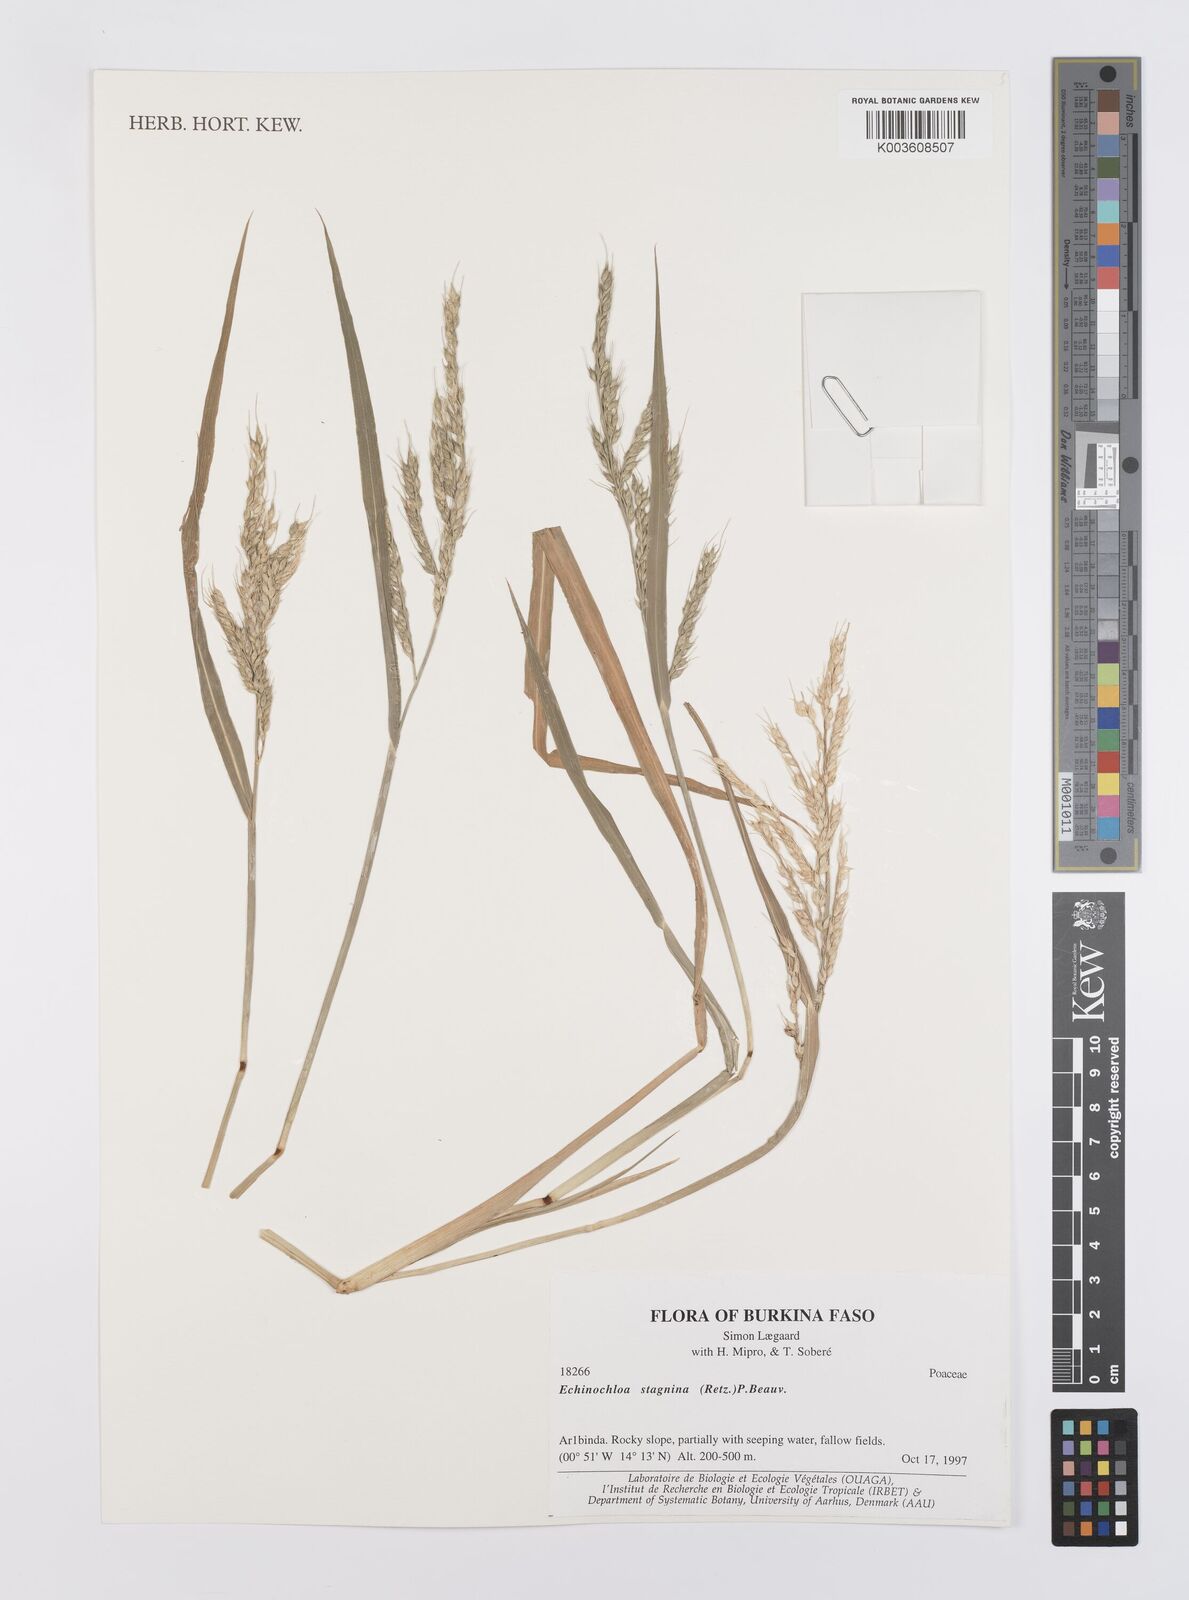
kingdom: Plantae
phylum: Tracheophyta
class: Liliopsida
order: Poales
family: Poaceae
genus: Echinochloa
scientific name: Echinochloa stagnina
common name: Burgu grass
